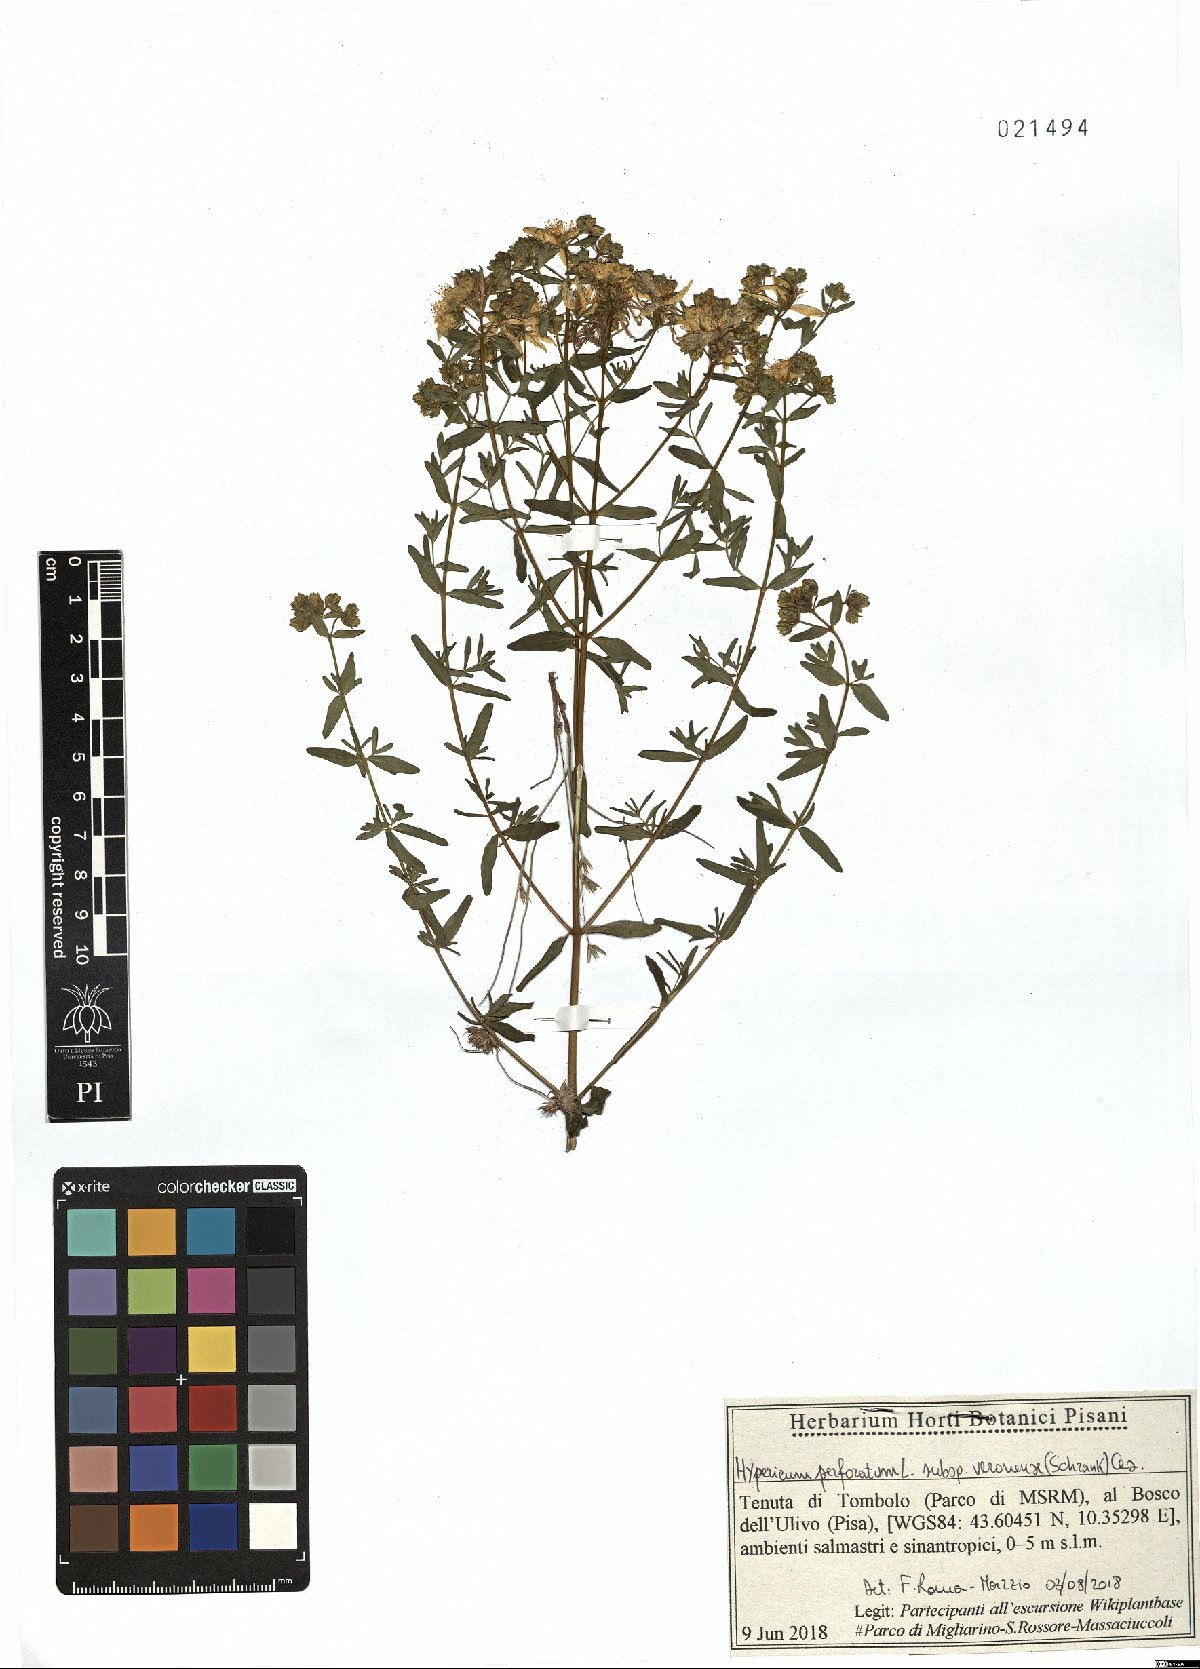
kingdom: Plantae
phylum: Tracheophyta
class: Magnoliopsida
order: Malpighiales
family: Hypericaceae
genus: Hypericum
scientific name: Hypericum veronense
